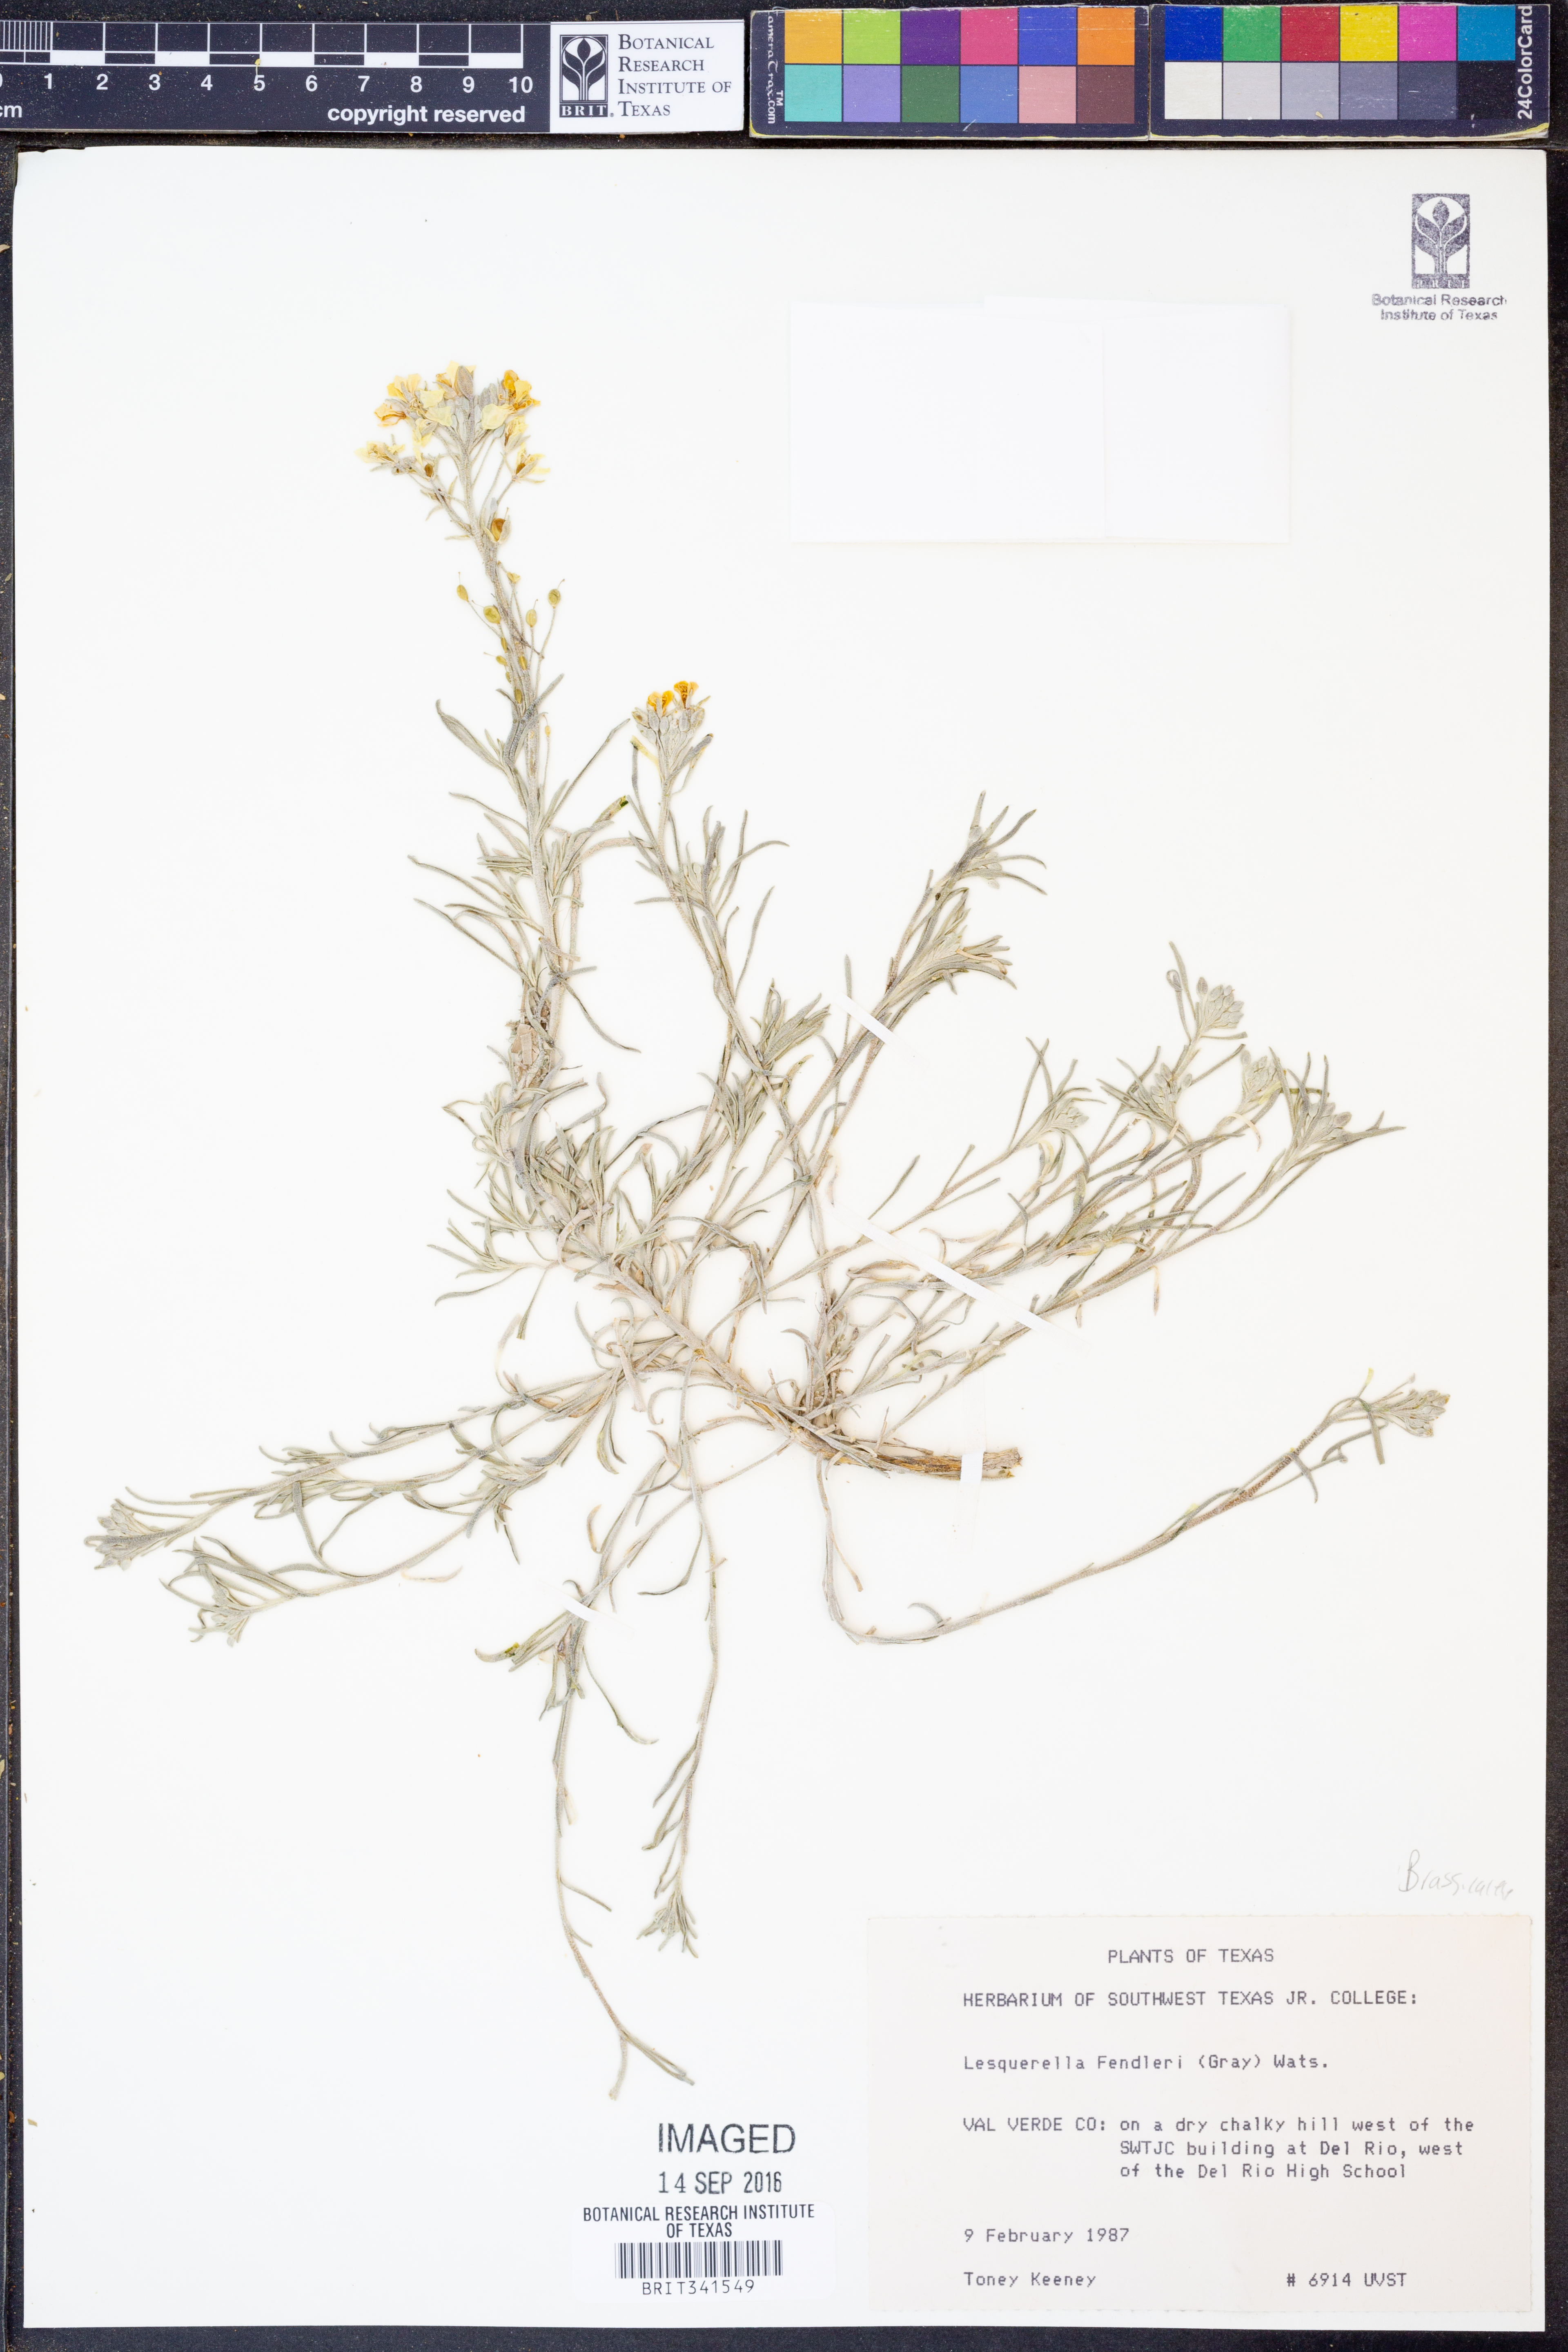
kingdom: Plantae
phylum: Tracheophyta
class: Magnoliopsida
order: Brassicales
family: Brassicaceae
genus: Physaria
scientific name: Physaria fendleri
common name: Fendler's bladderpod
